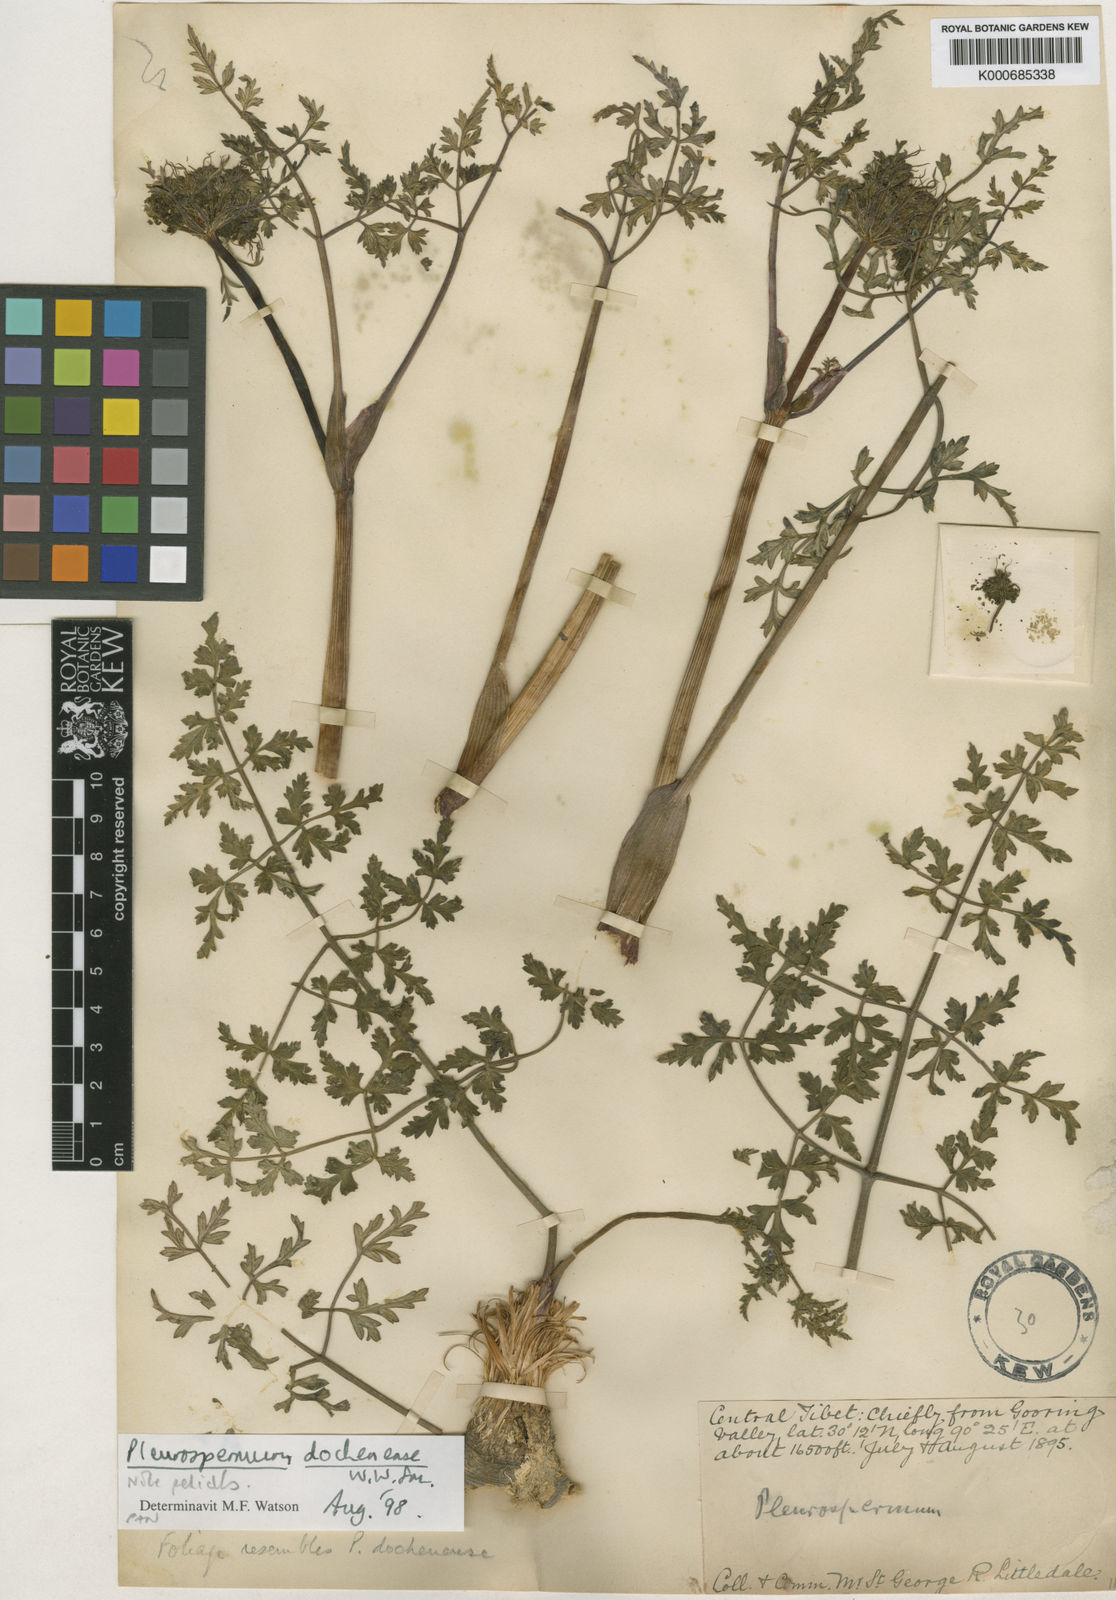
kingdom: Plantae
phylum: Tracheophyta
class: Magnoliopsida
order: Apiales
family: Apiaceae
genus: Pleurospermum
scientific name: Pleurospermum hookeri
